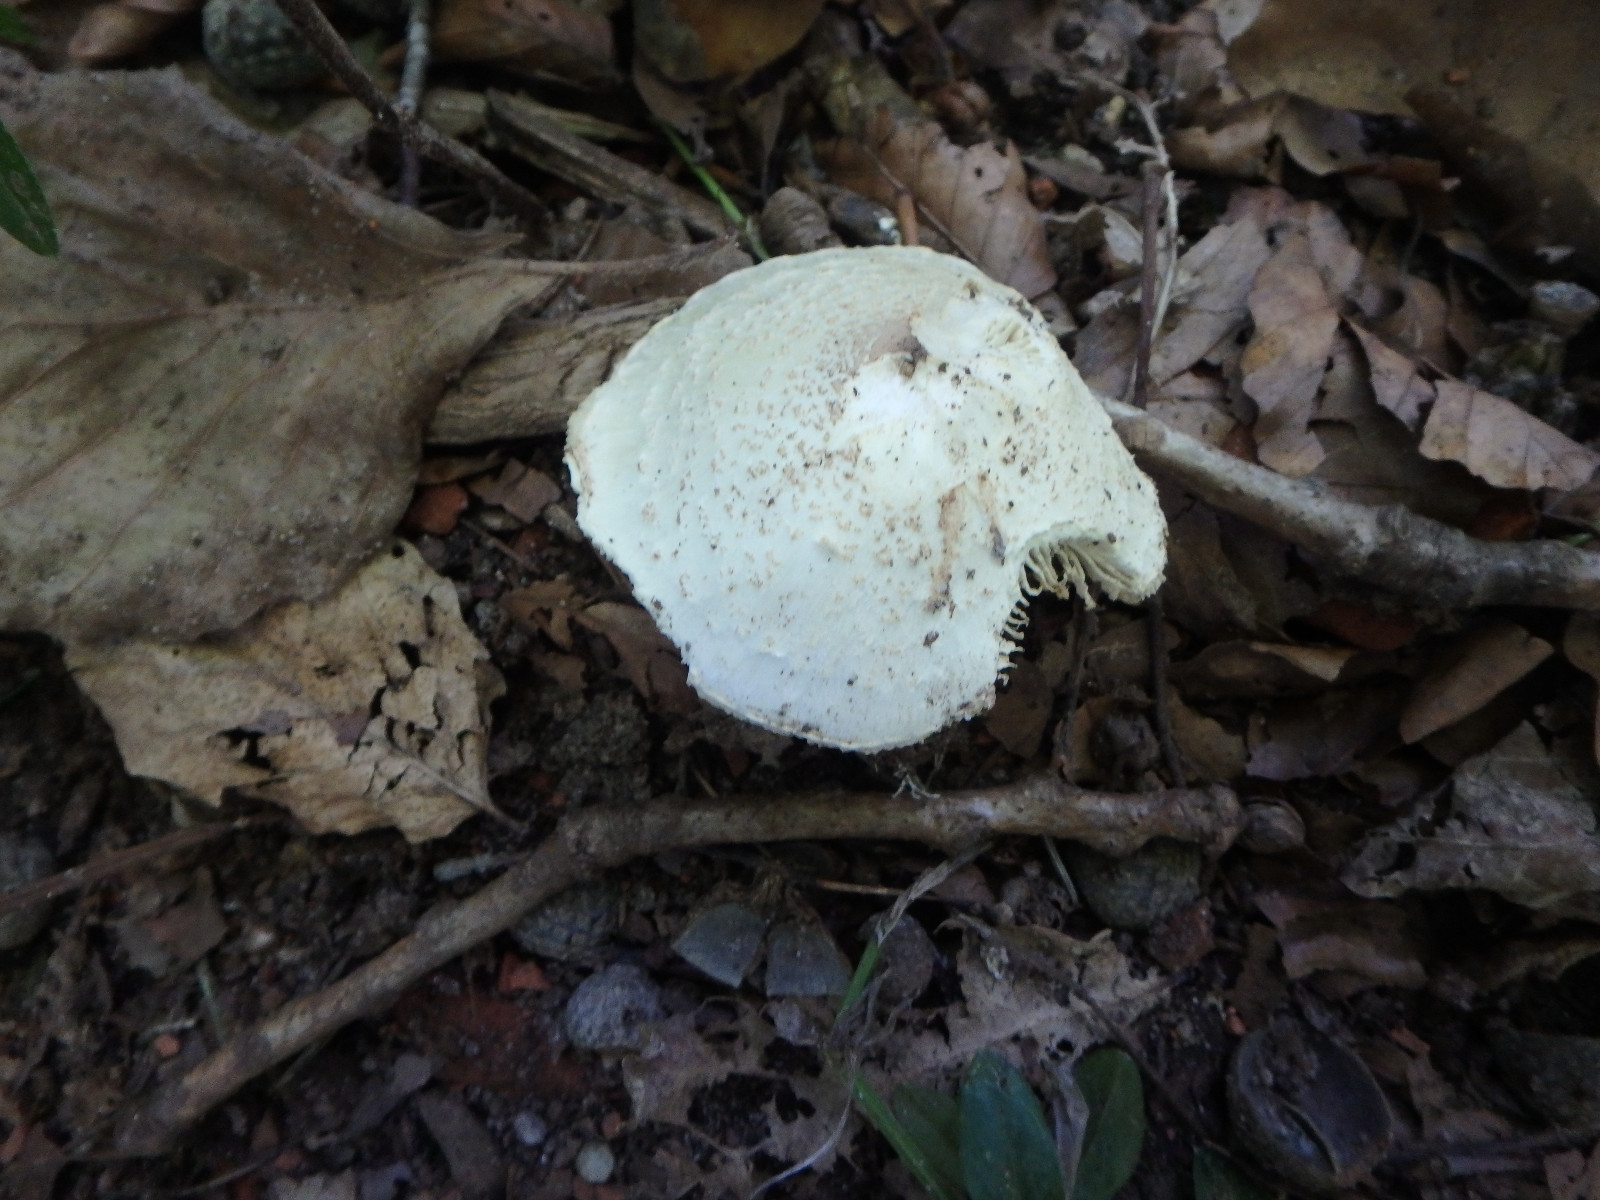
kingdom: Fungi
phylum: Basidiomycota
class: Agaricomycetes
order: Agaricales
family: Agaricaceae
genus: Lepiota
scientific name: Lepiota cristata
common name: stinkende parasolhat
